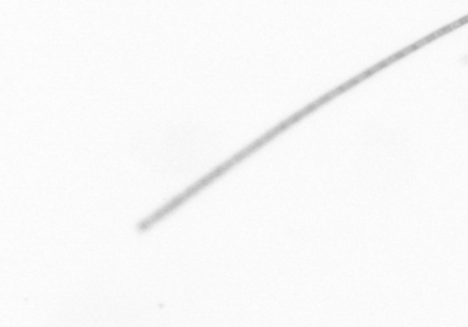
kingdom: Chromista
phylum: Ochrophyta
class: Bacillariophyceae
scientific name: Bacillariophyceae
